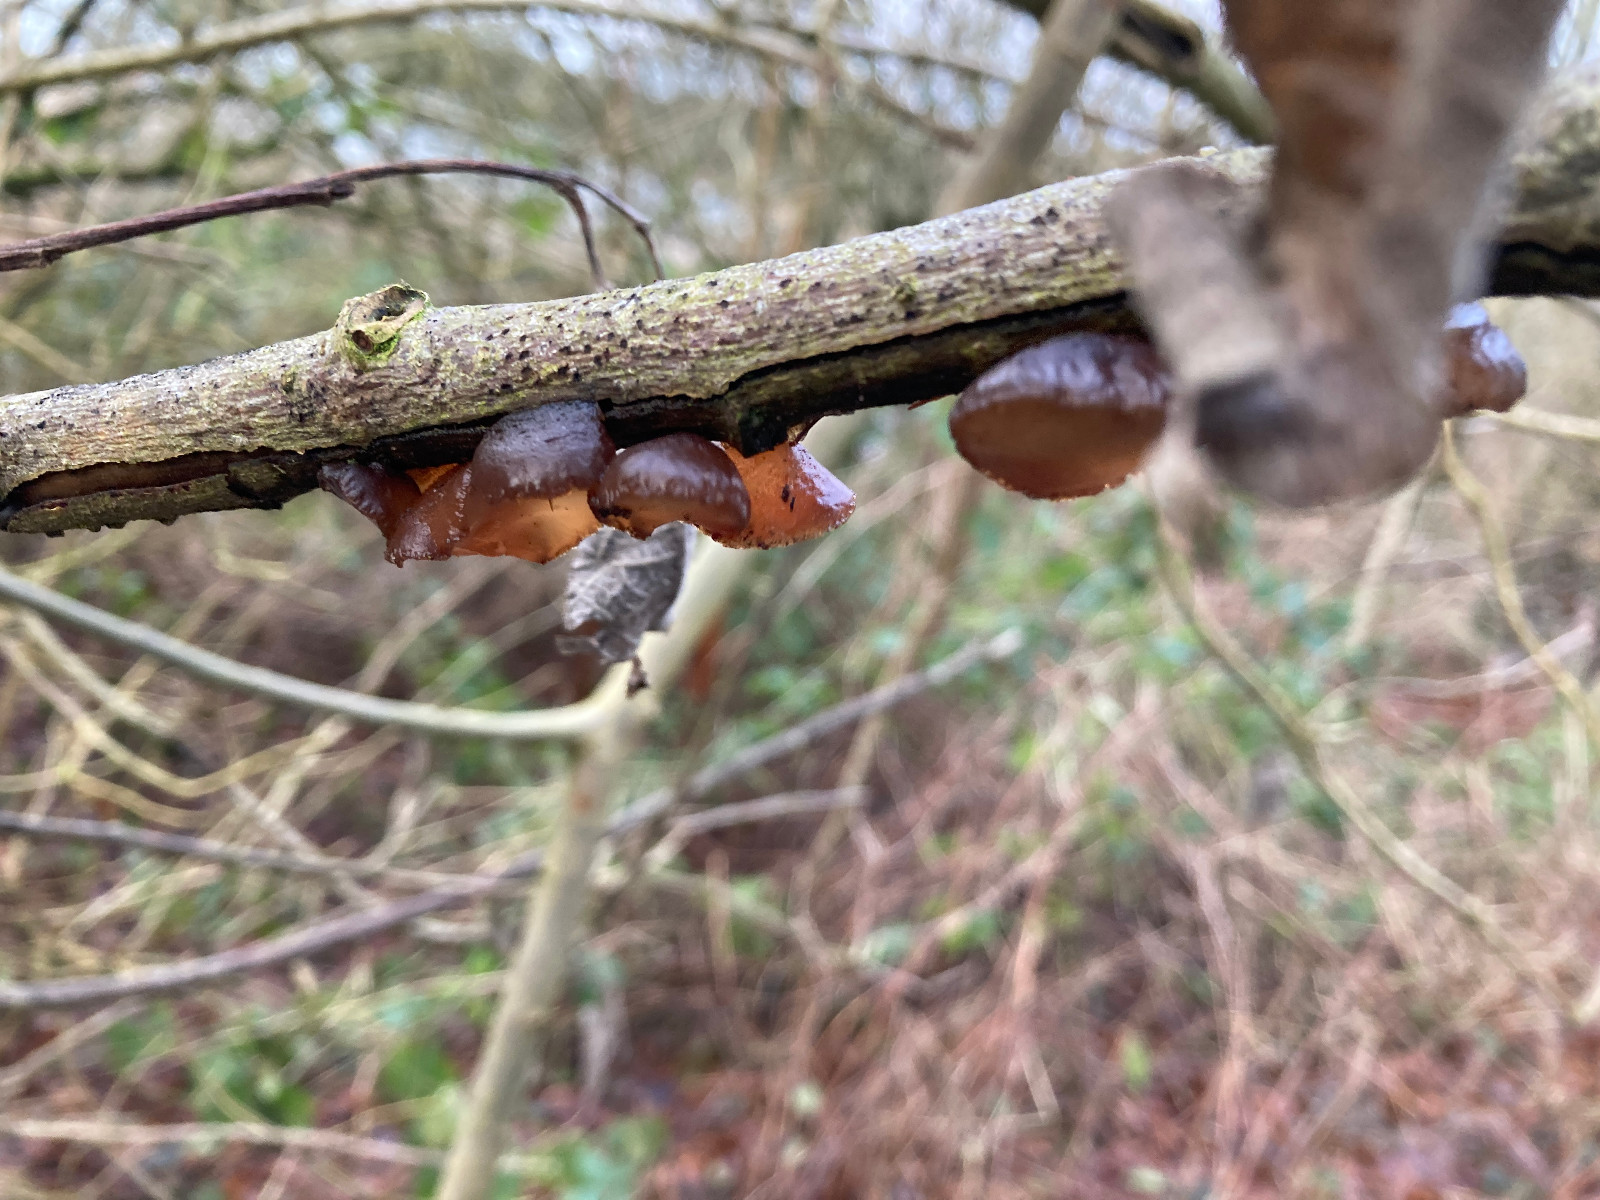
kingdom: Fungi
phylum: Basidiomycota
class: Agaricomycetes
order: Auriculariales
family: Auriculariaceae
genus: Exidia
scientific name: Exidia recisa
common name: pile-bævretop
